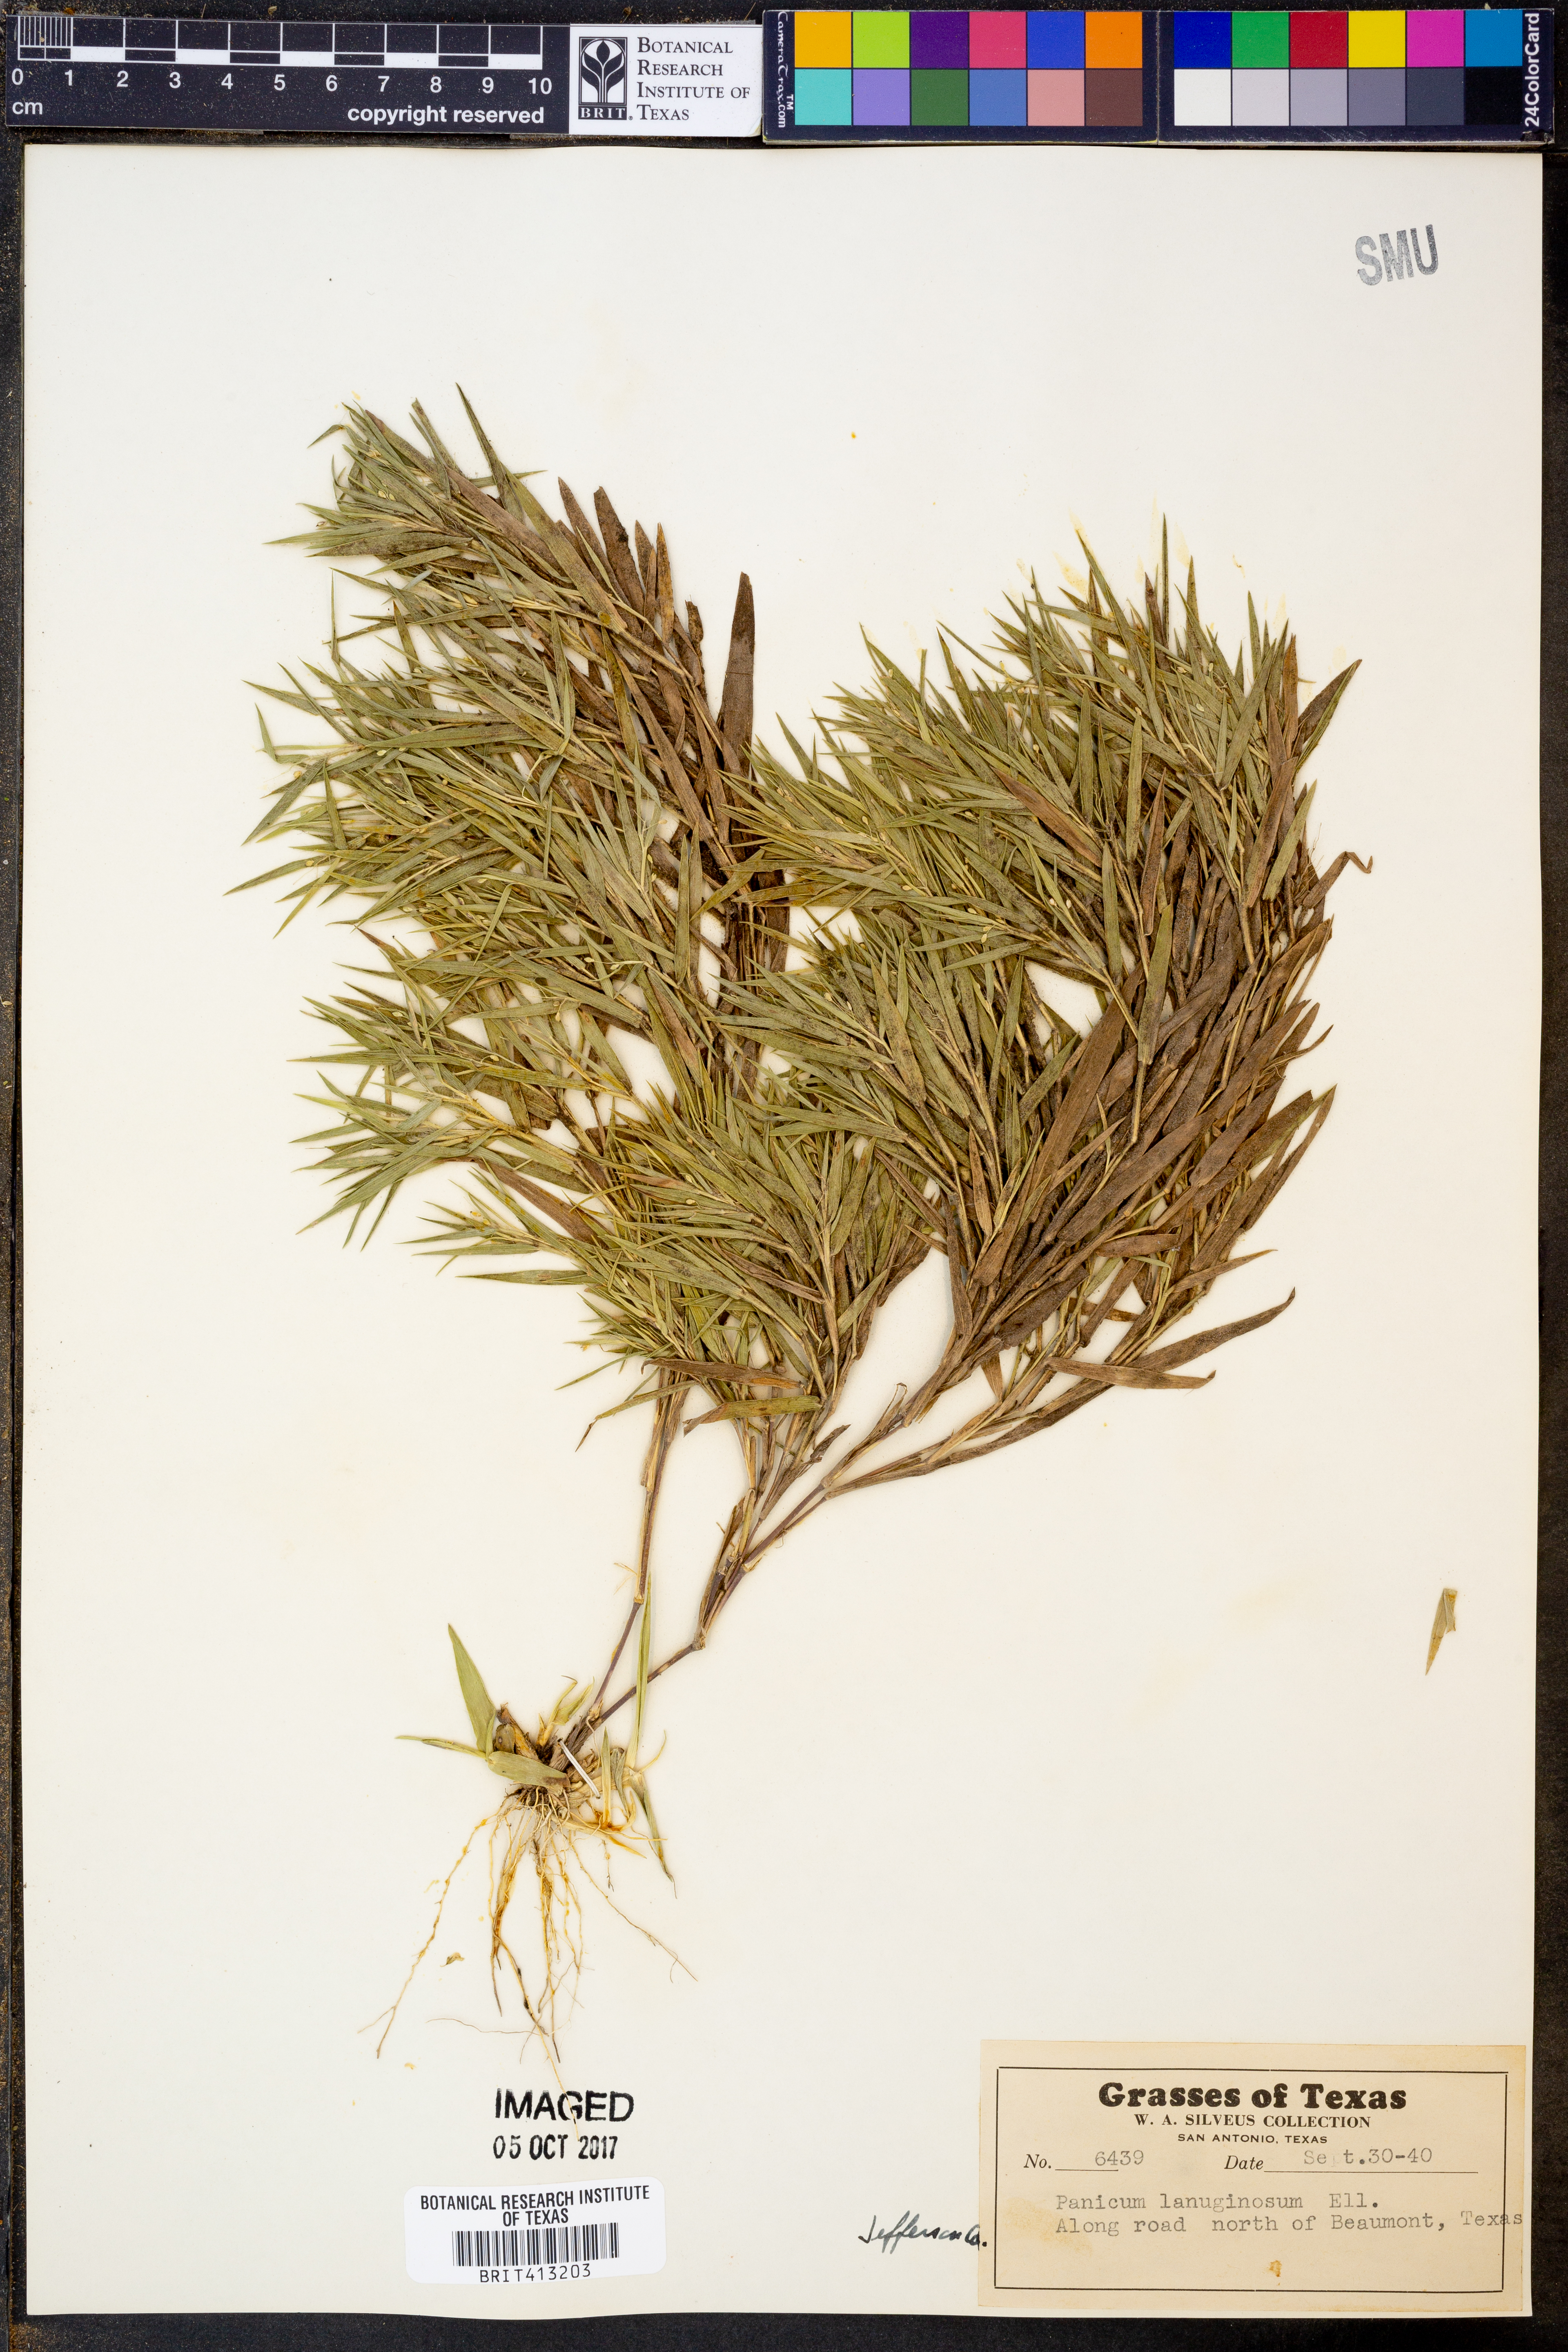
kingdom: Plantae
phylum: Tracheophyta
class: Liliopsida
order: Poales
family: Poaceae
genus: Dichanthelium
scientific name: Dichanthelium lanuginosum
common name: Woolly panicgrass
